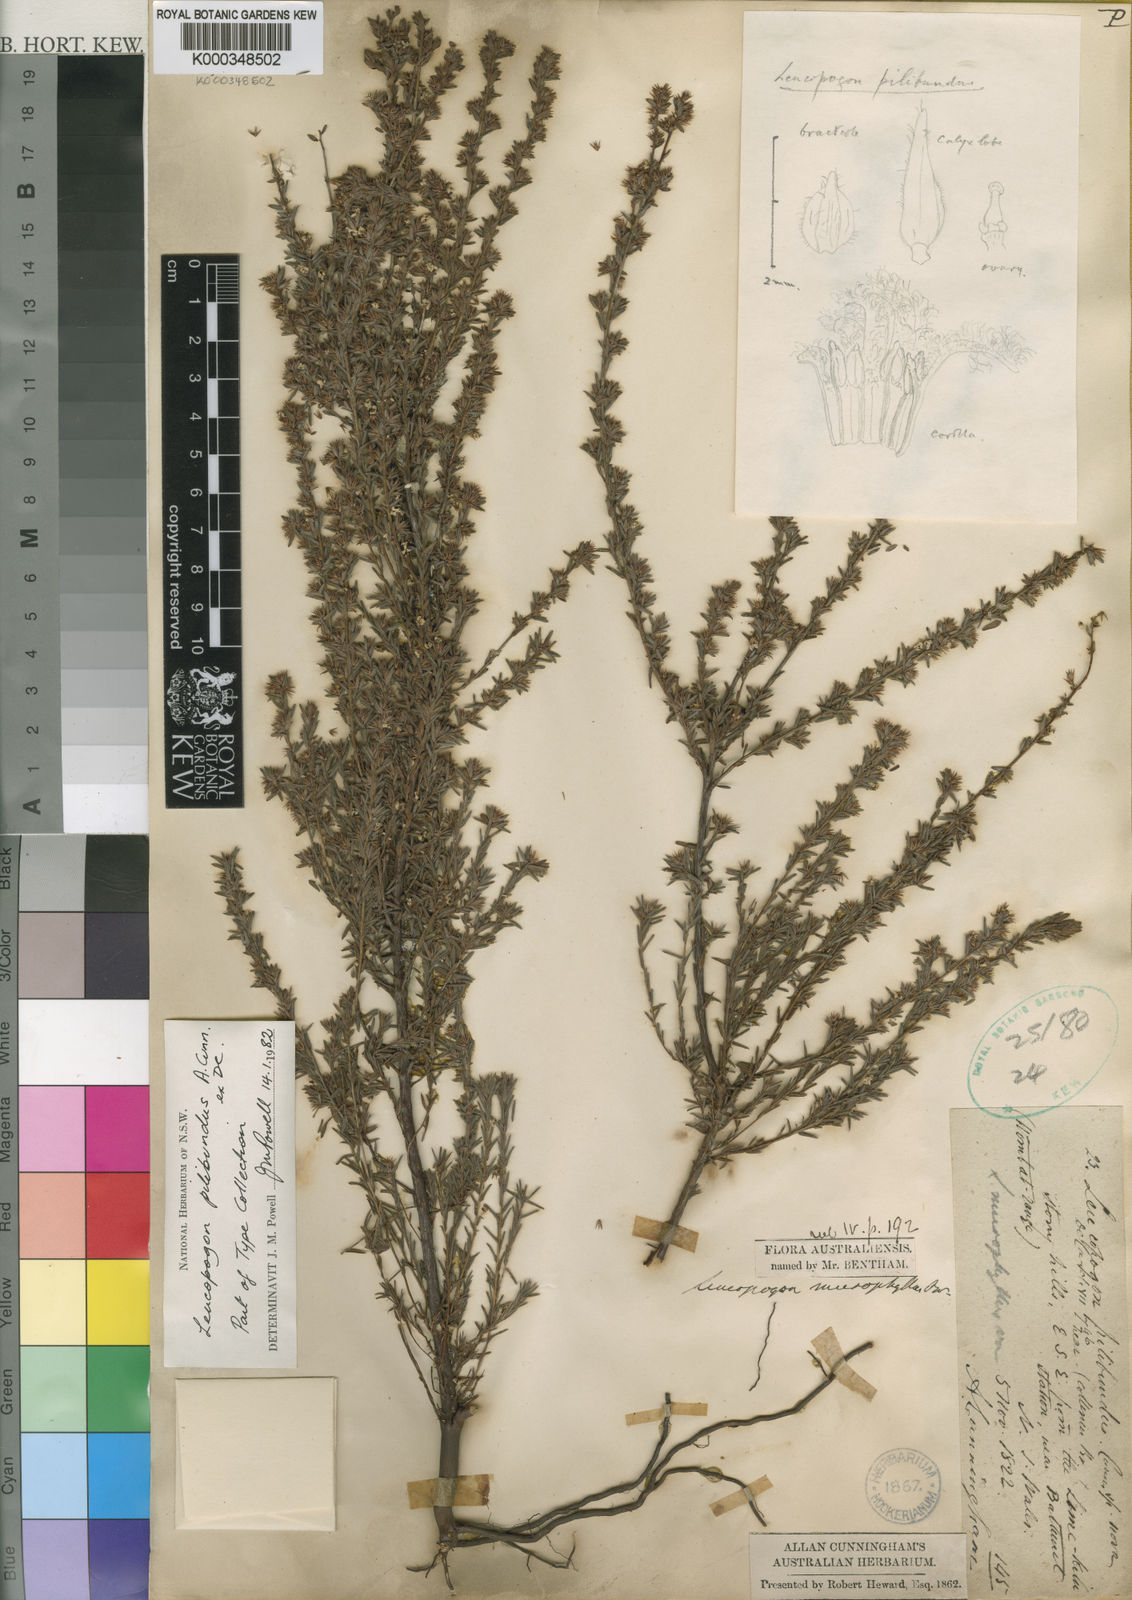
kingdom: Plantae
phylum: Tracheophyta
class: Magnoliopsida
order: Ericales
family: Ericaceae
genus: Leucopogon
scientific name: Leucopogon microphyllus
